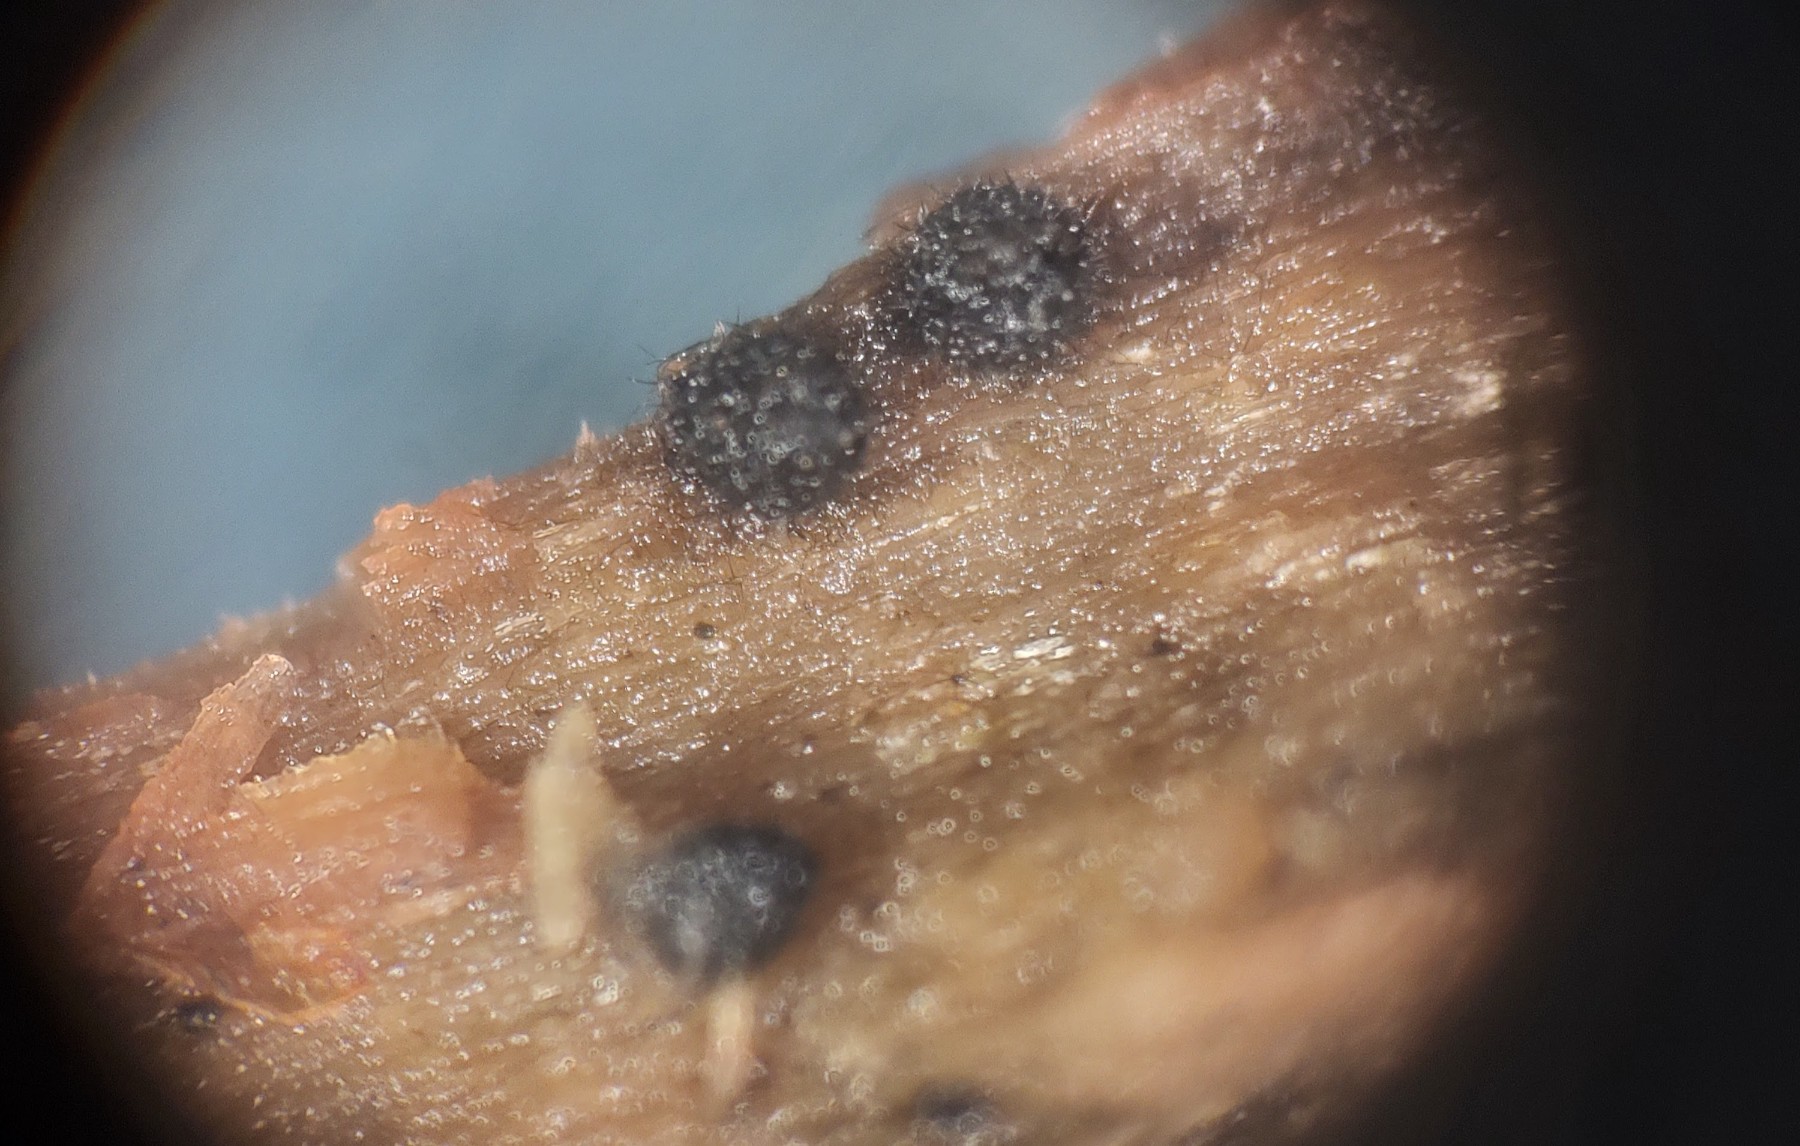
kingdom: Fungi
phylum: Ascomycota
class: Sordariomycetes
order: Sordariales
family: Lasiosphaeridaceae
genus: Lasiosphaeris
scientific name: Lasiosphaeris hirsuta
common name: sorthåret kernesvamp
